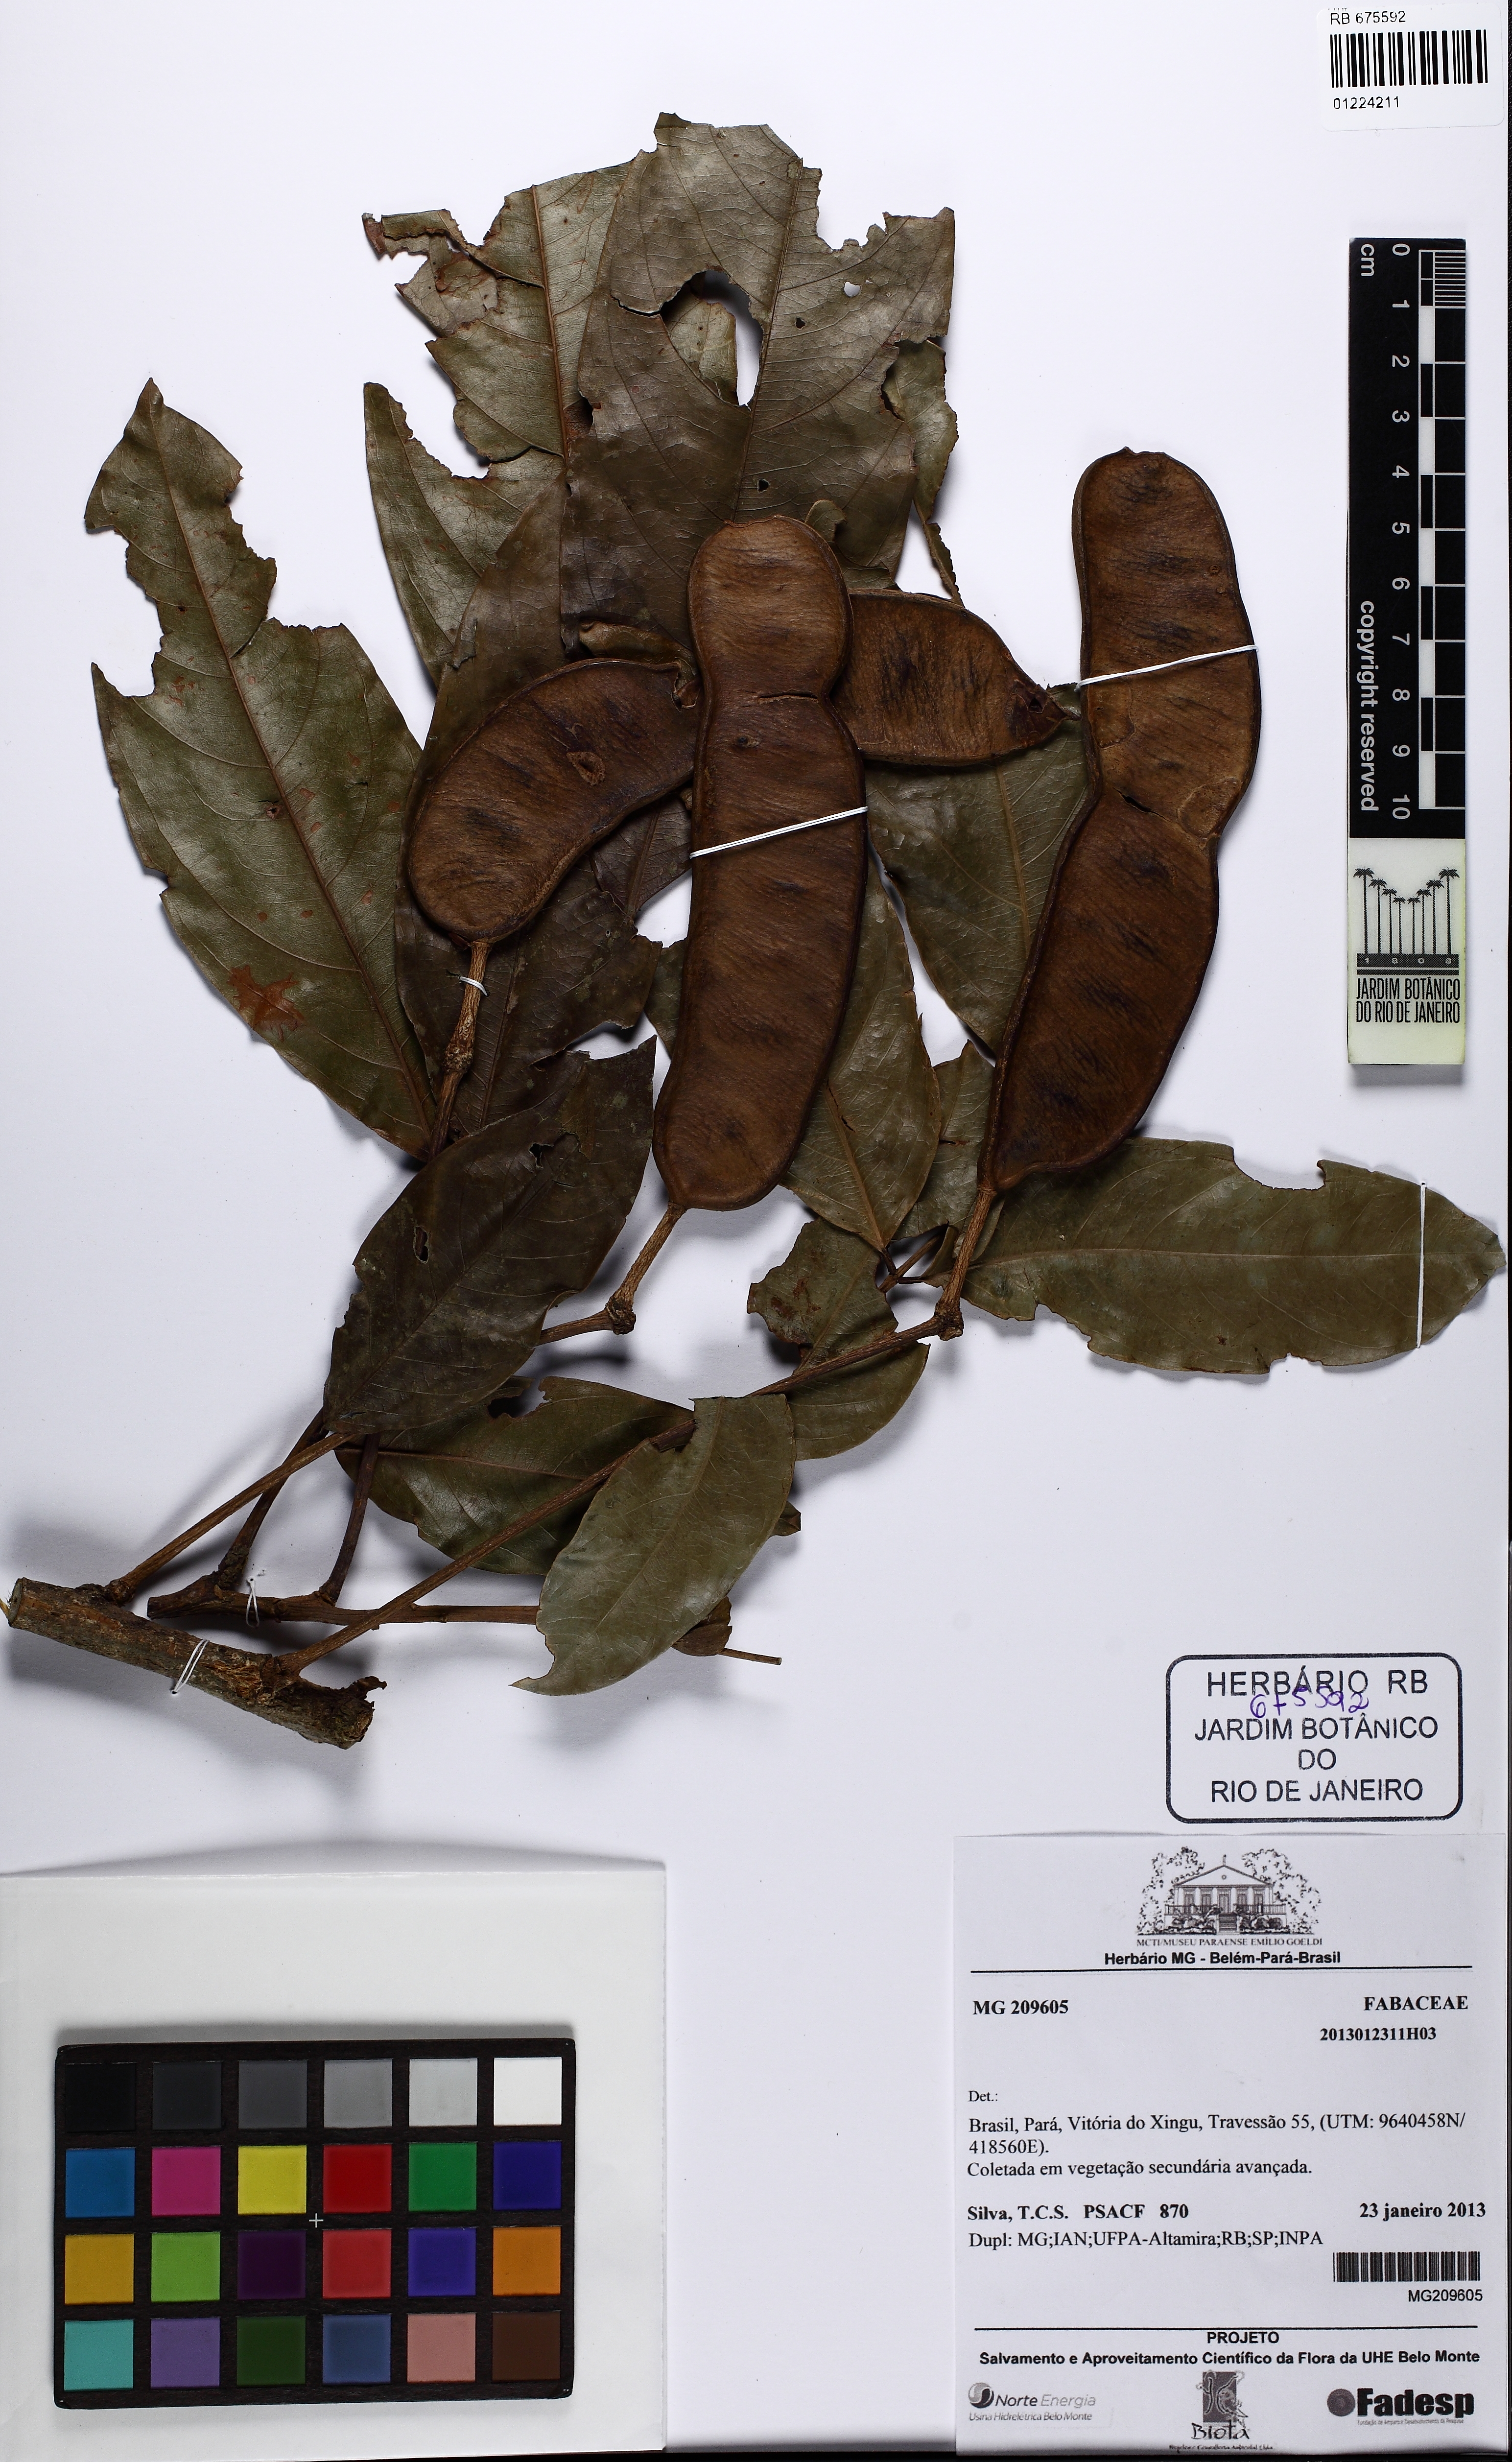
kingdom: Plantae
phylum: Tracheophyta
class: Magnoliopsida
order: Fabales
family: Fabaceae
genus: Inga
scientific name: Inga
